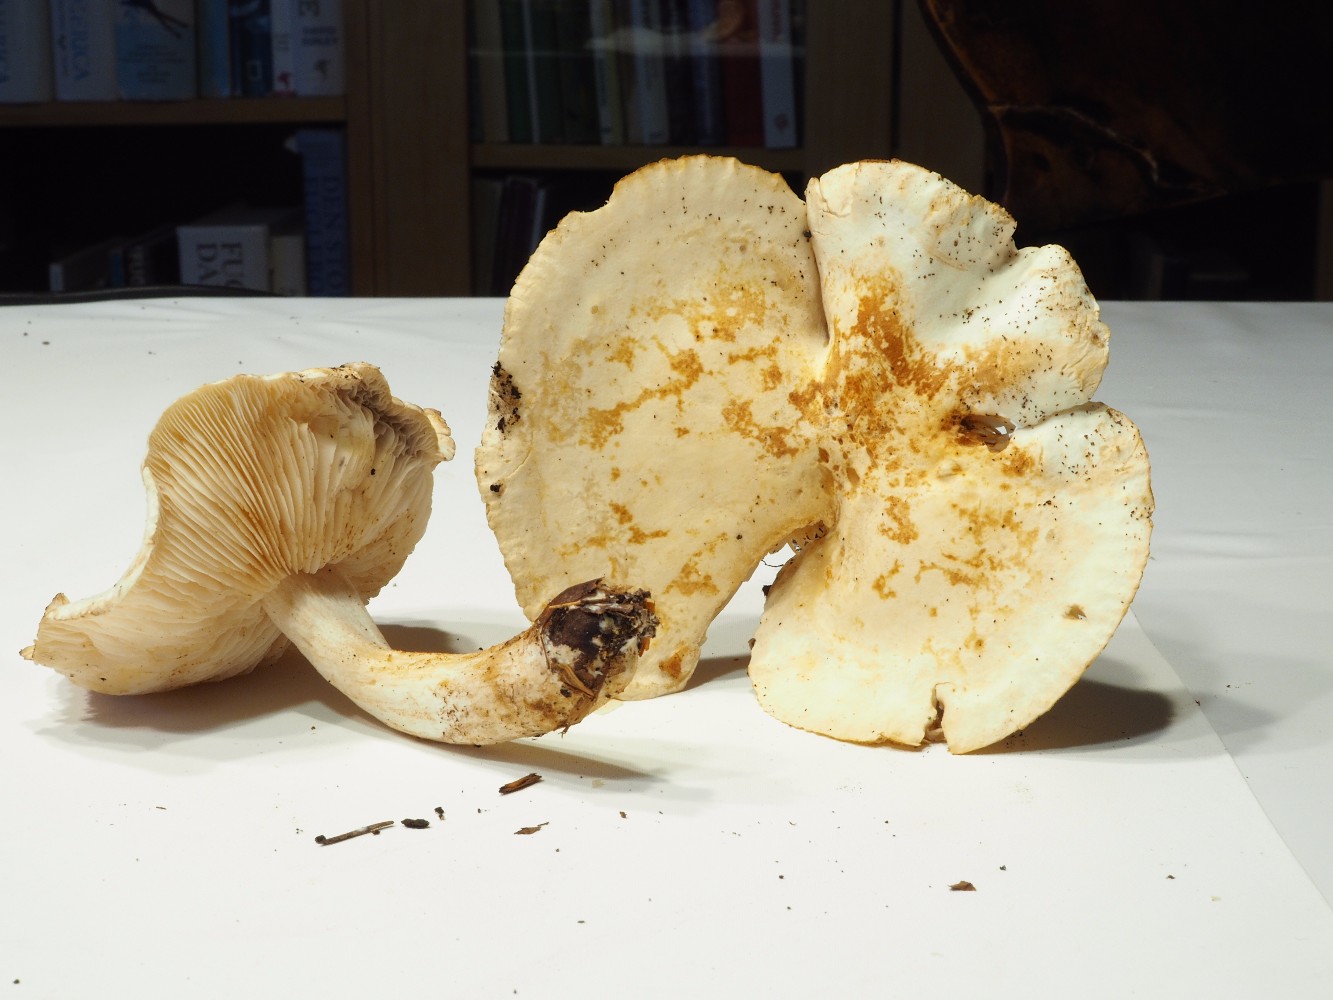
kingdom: Fungi
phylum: Basidiomycota
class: Agaricomycetes
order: Agaricales
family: Tricholomataceae
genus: Tricholoma
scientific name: Tricholoma stiparophyllum
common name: hvid ridderhat
